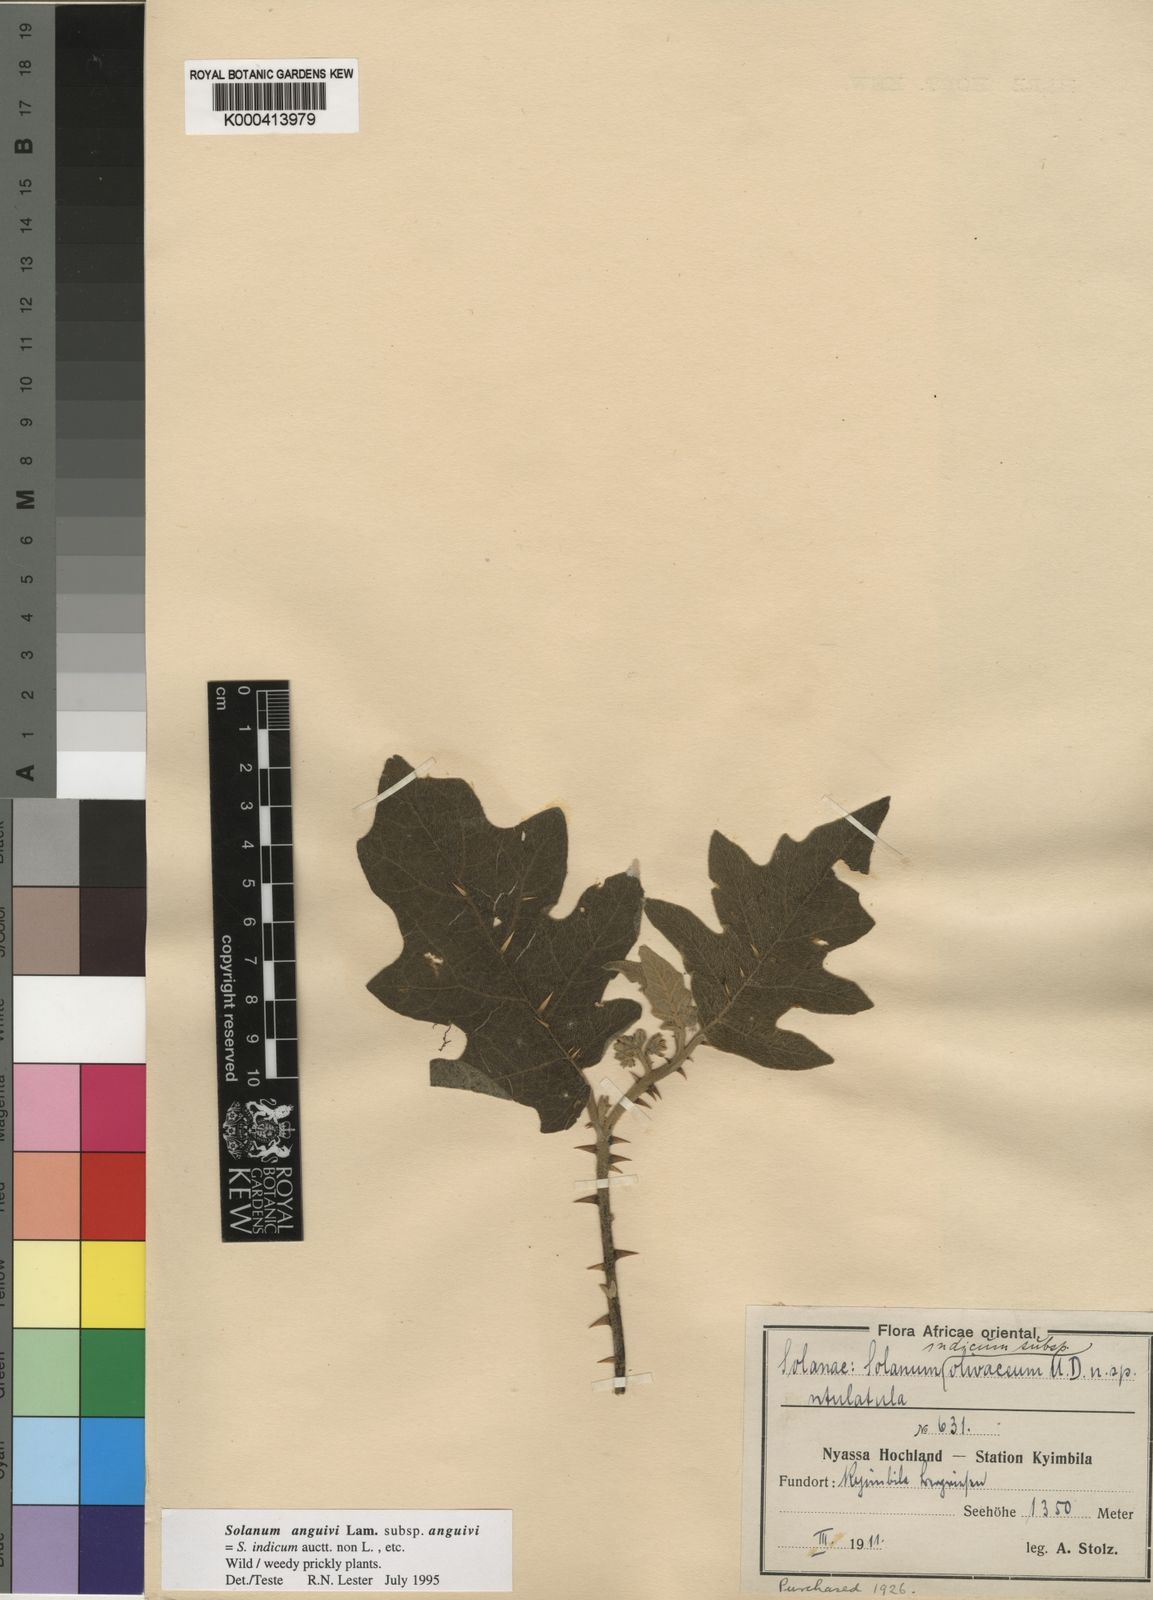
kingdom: Plantae
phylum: Tracheophyta
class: Magnoliopsida
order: Solanales
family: Solanaceae
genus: Solanum
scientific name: Solanum
